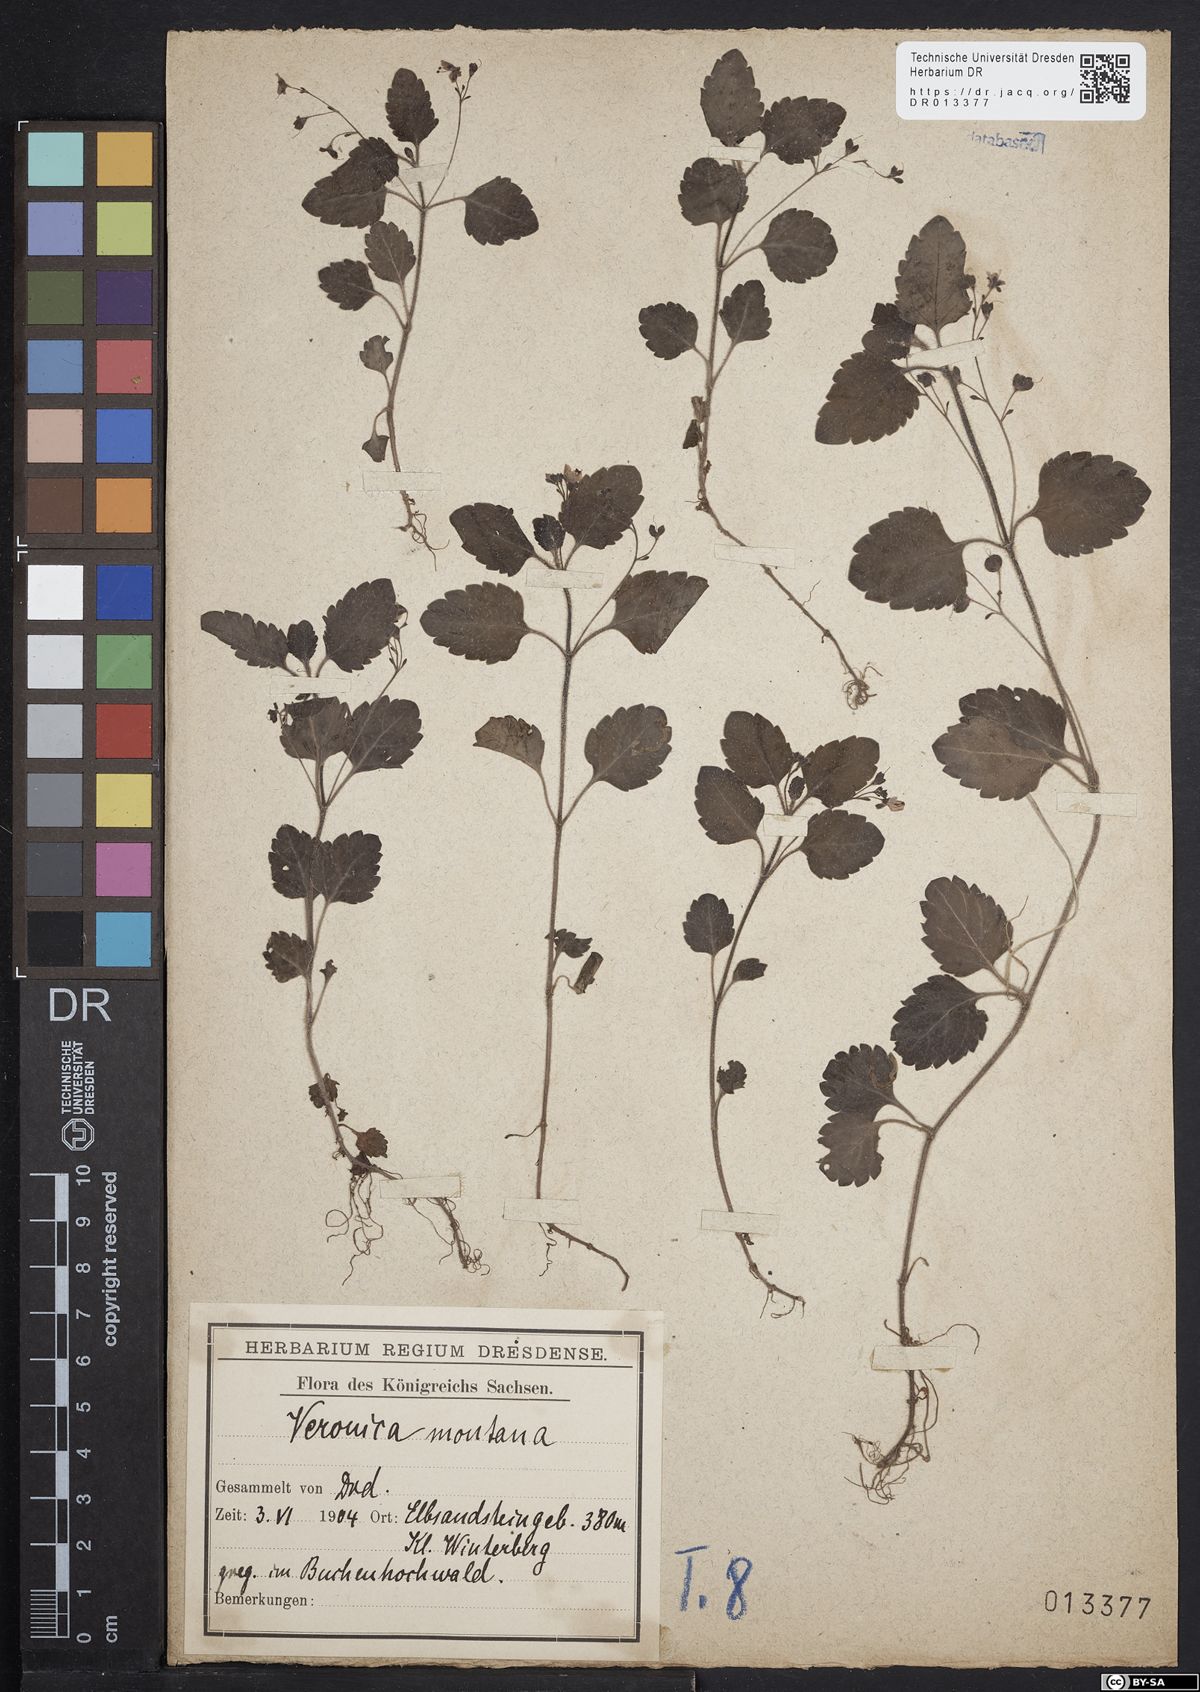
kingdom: Plantae
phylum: Tracheophyta
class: Magnoliopsida
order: Lamiales
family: Plantaginaceae
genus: Veronica
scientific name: Veronica montana
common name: Wood speedwell
